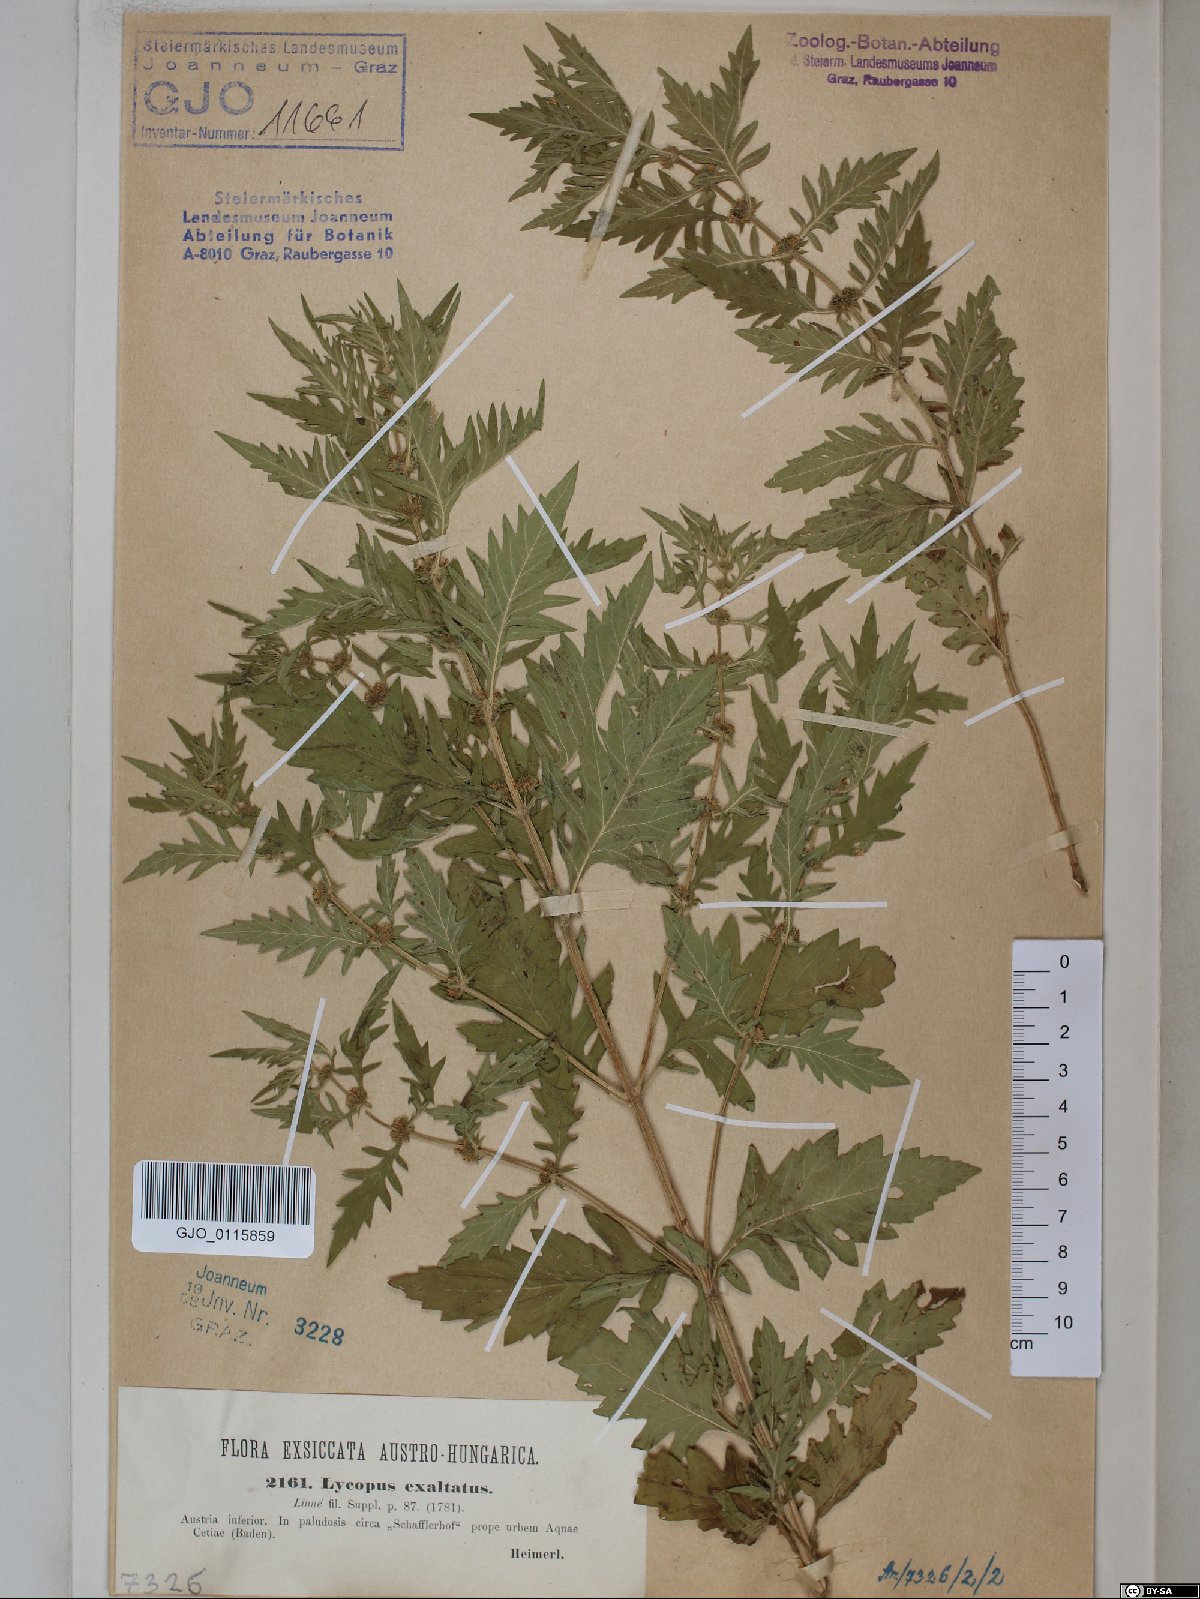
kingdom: Plantae
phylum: Tracheophyta
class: Magnoliopsida
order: Lamiales
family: Lamiaceae
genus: Lycopus
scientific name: Lycopus exaltatus
